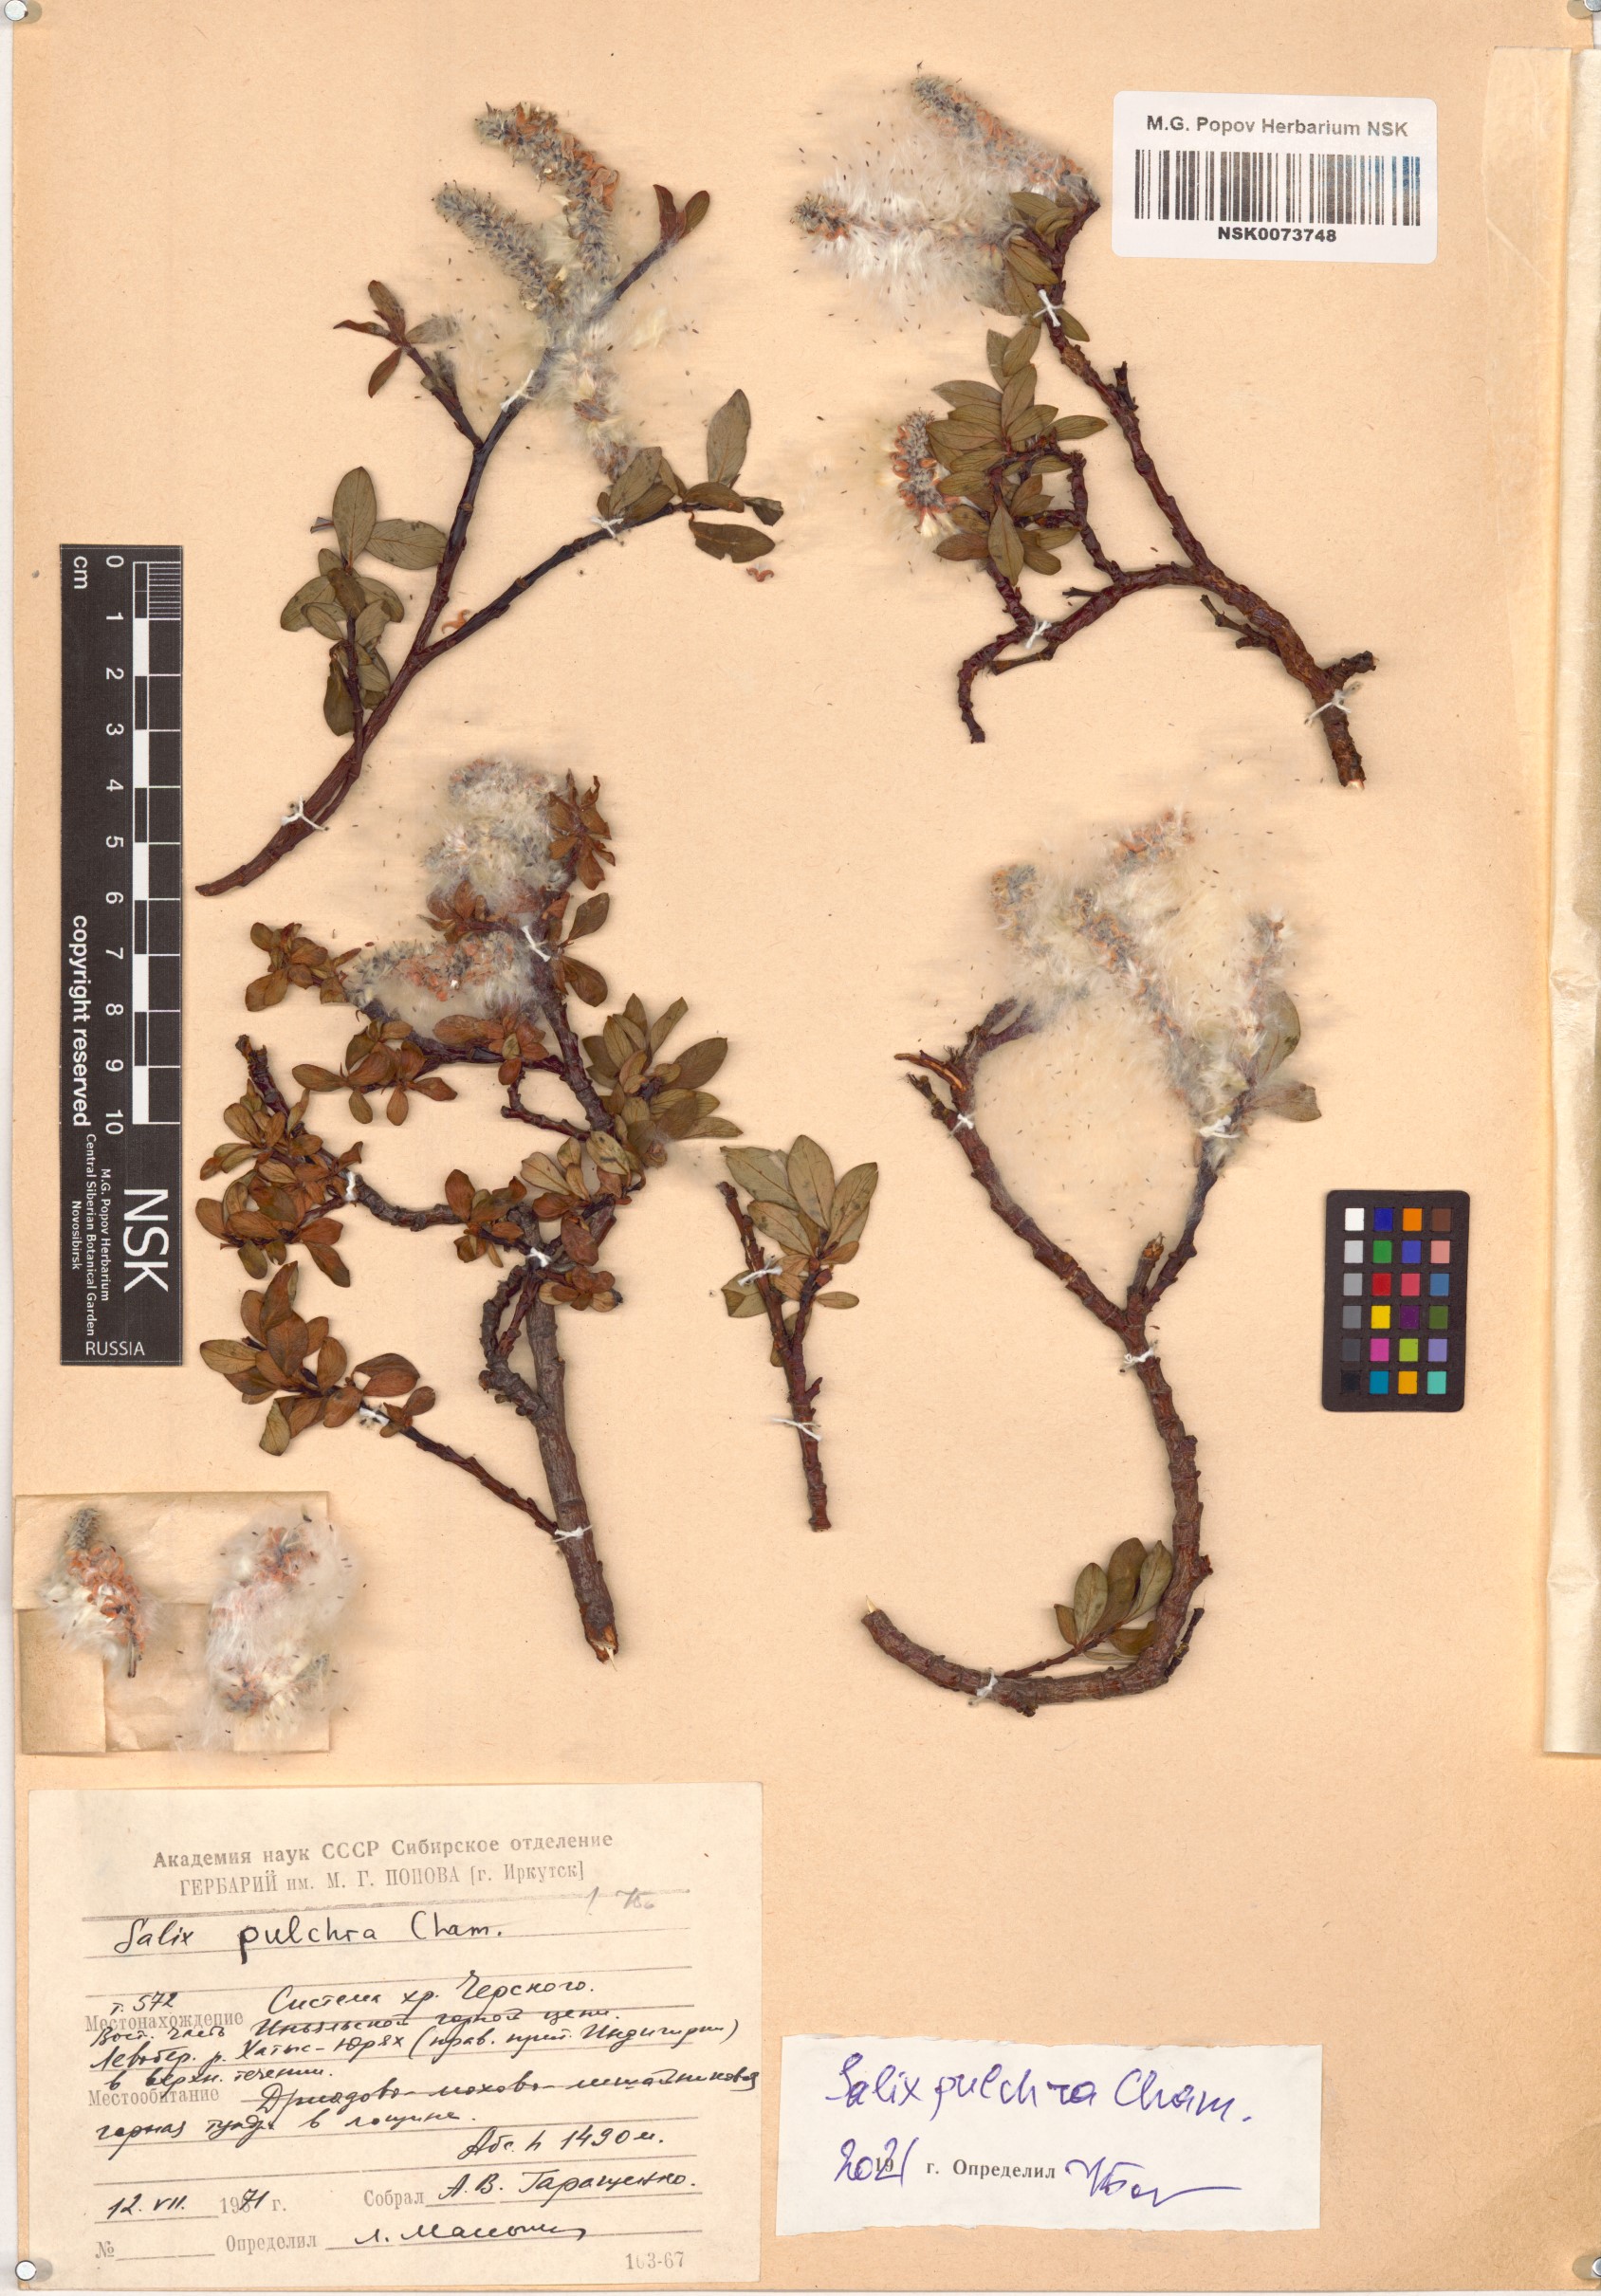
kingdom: Plantae
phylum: Tracheophyta
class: Magnoliopsida
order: Malpighiales
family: Salicaceae
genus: Salix
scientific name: Salix pulchra
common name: Diamond-leaved willow
